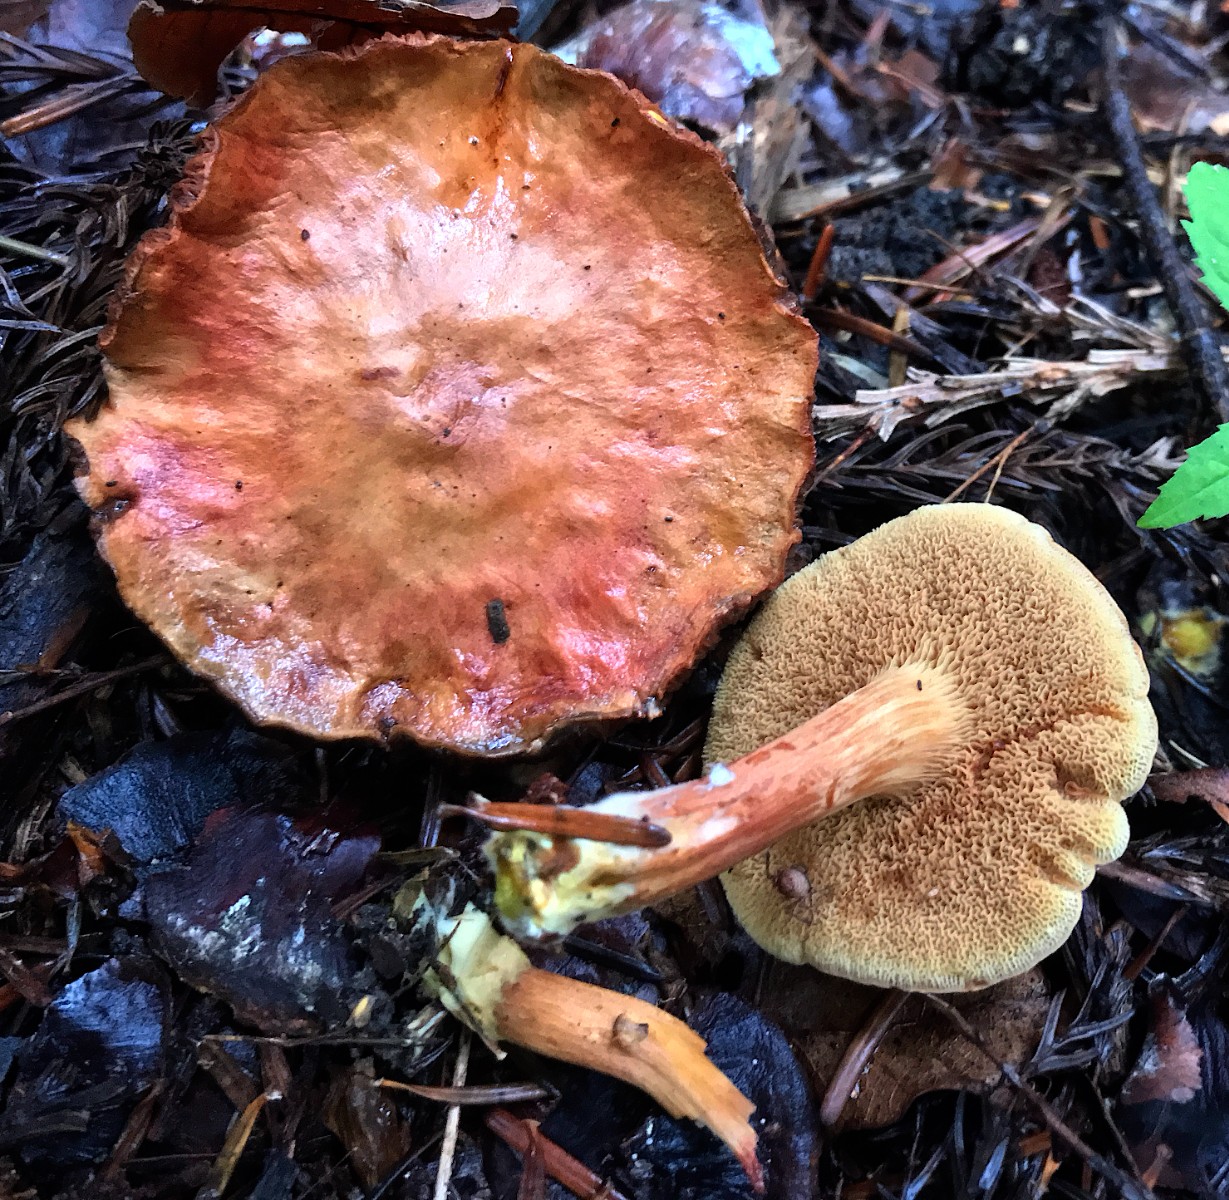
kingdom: Fungi
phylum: Basidiomycota
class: Agaricomycetes
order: Boletales
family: Boletaceae
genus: Chalciporus
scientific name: Chalciporus piperatus
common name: peberrørhat
